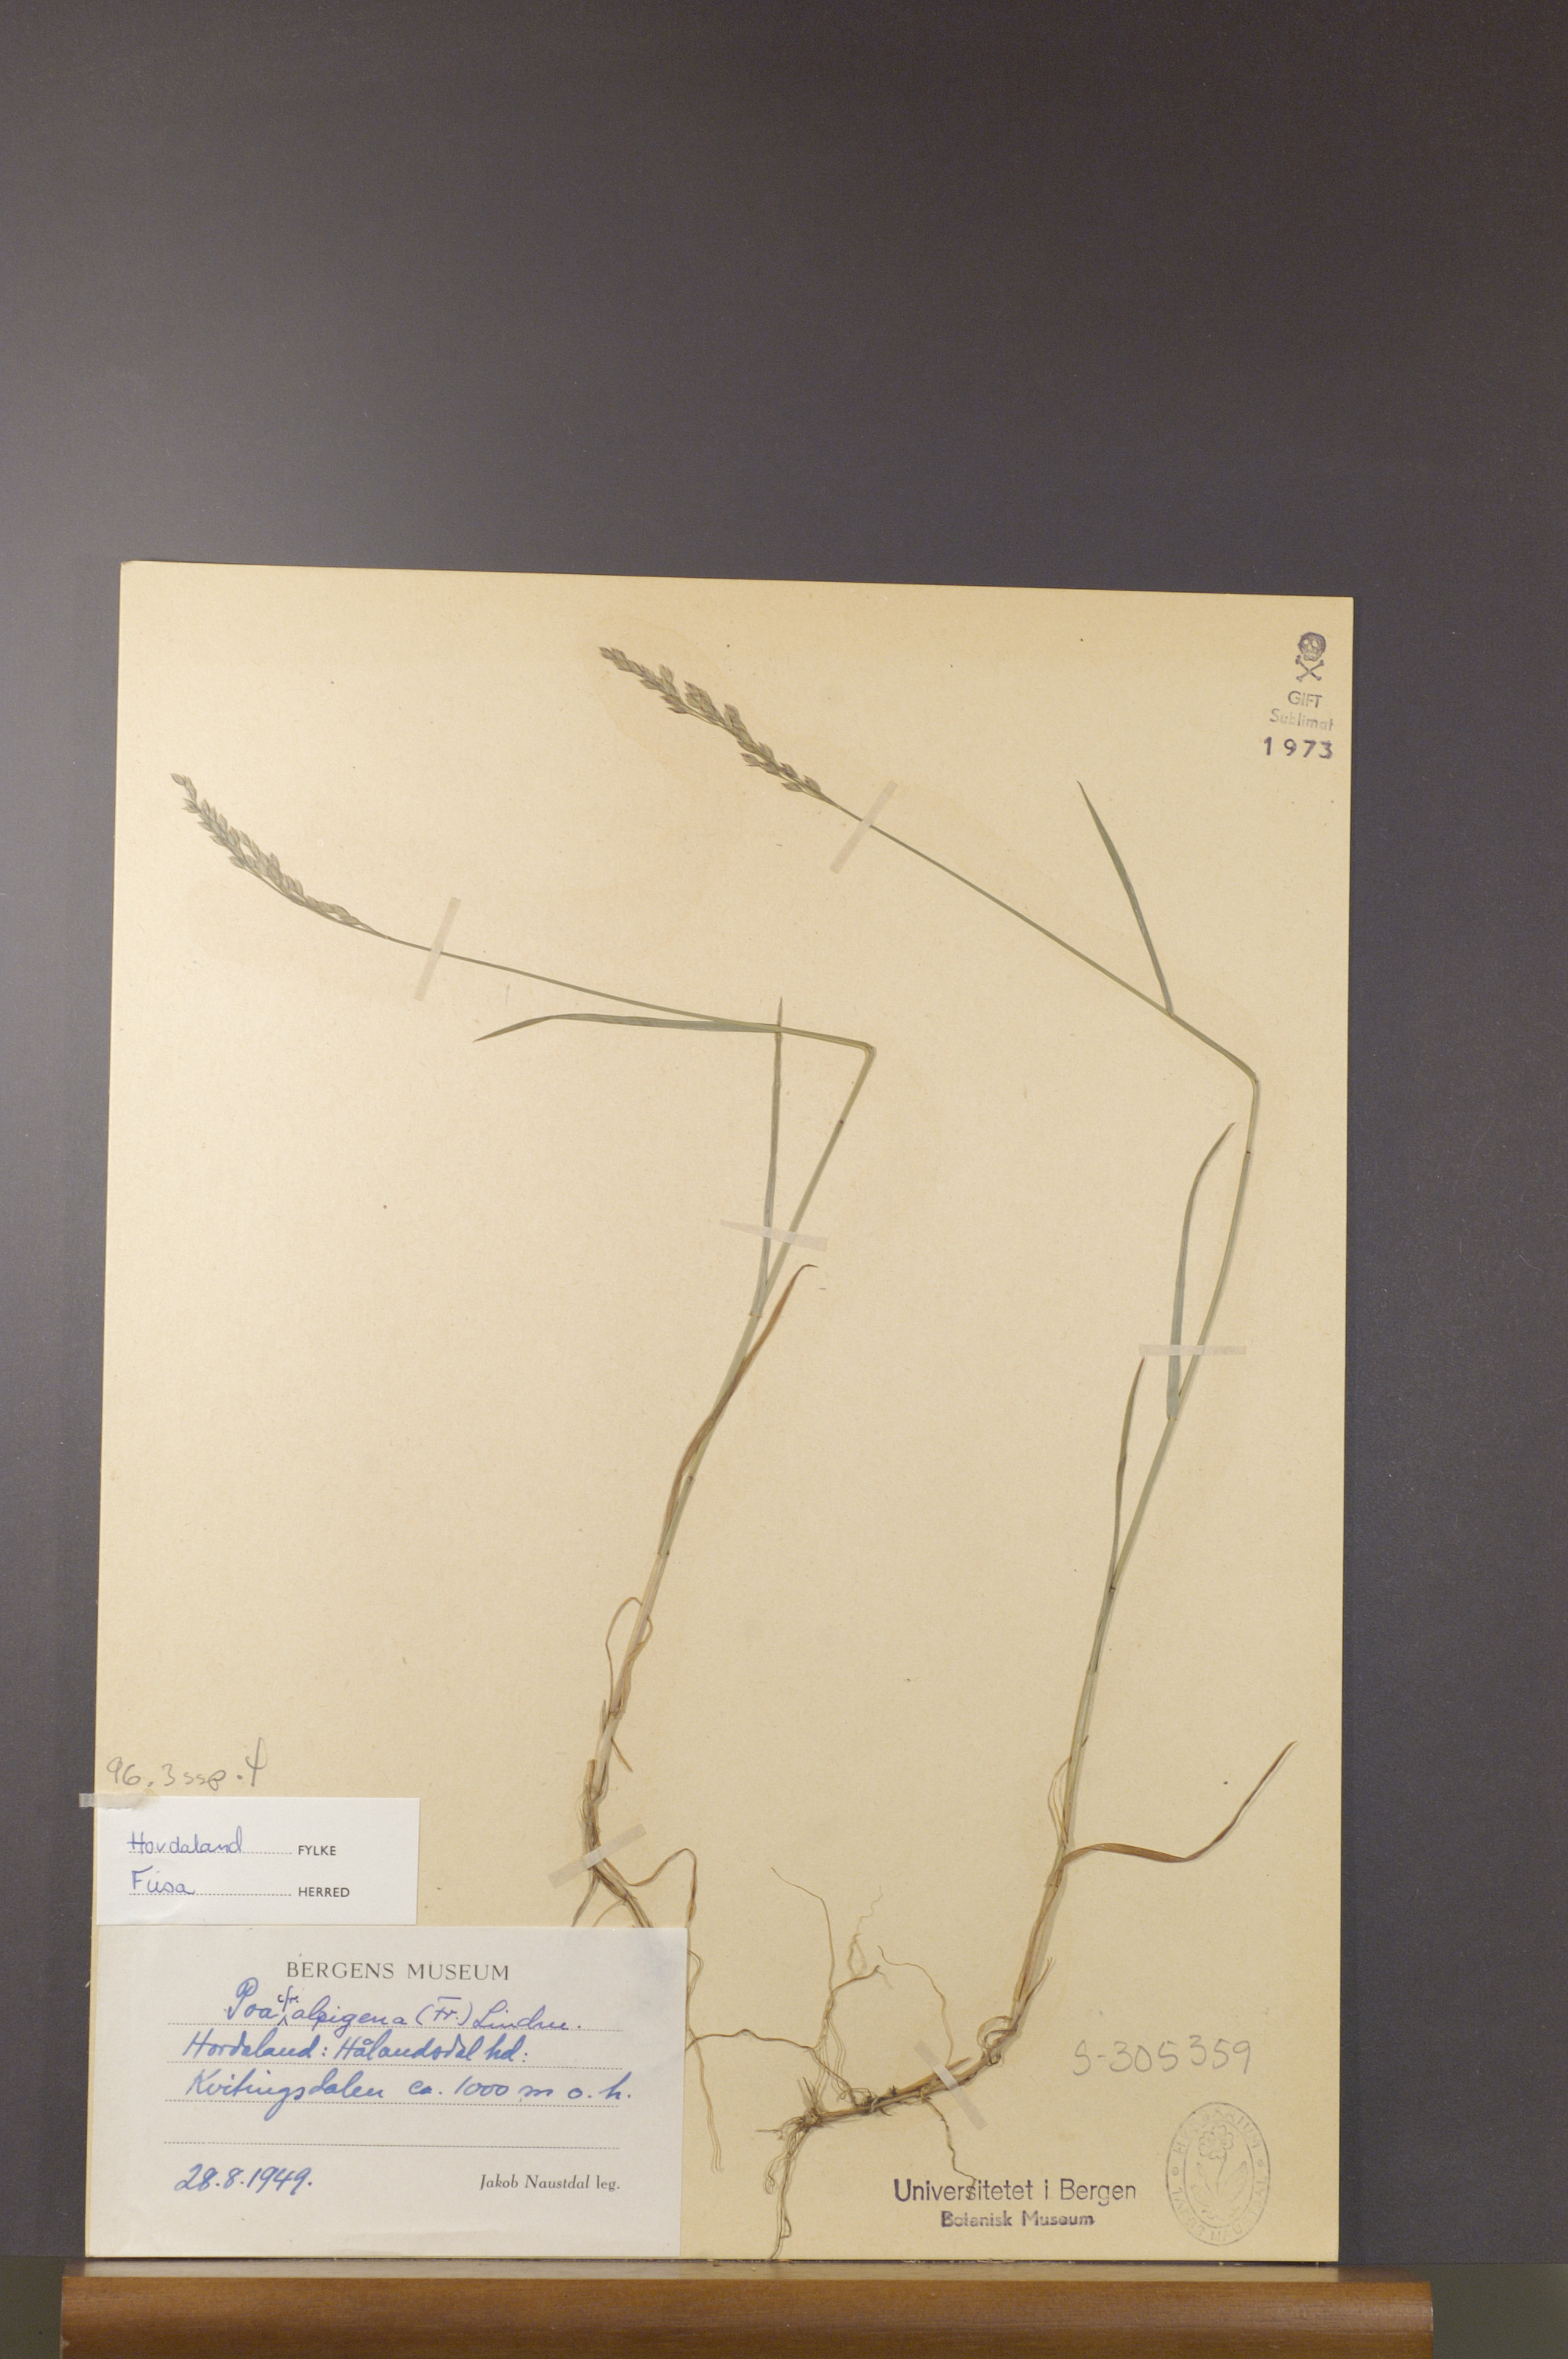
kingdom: Plantae
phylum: Tracheophyta
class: Liliopsida
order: Poales
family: Poaceae
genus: Poa
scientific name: Poa alpigena
